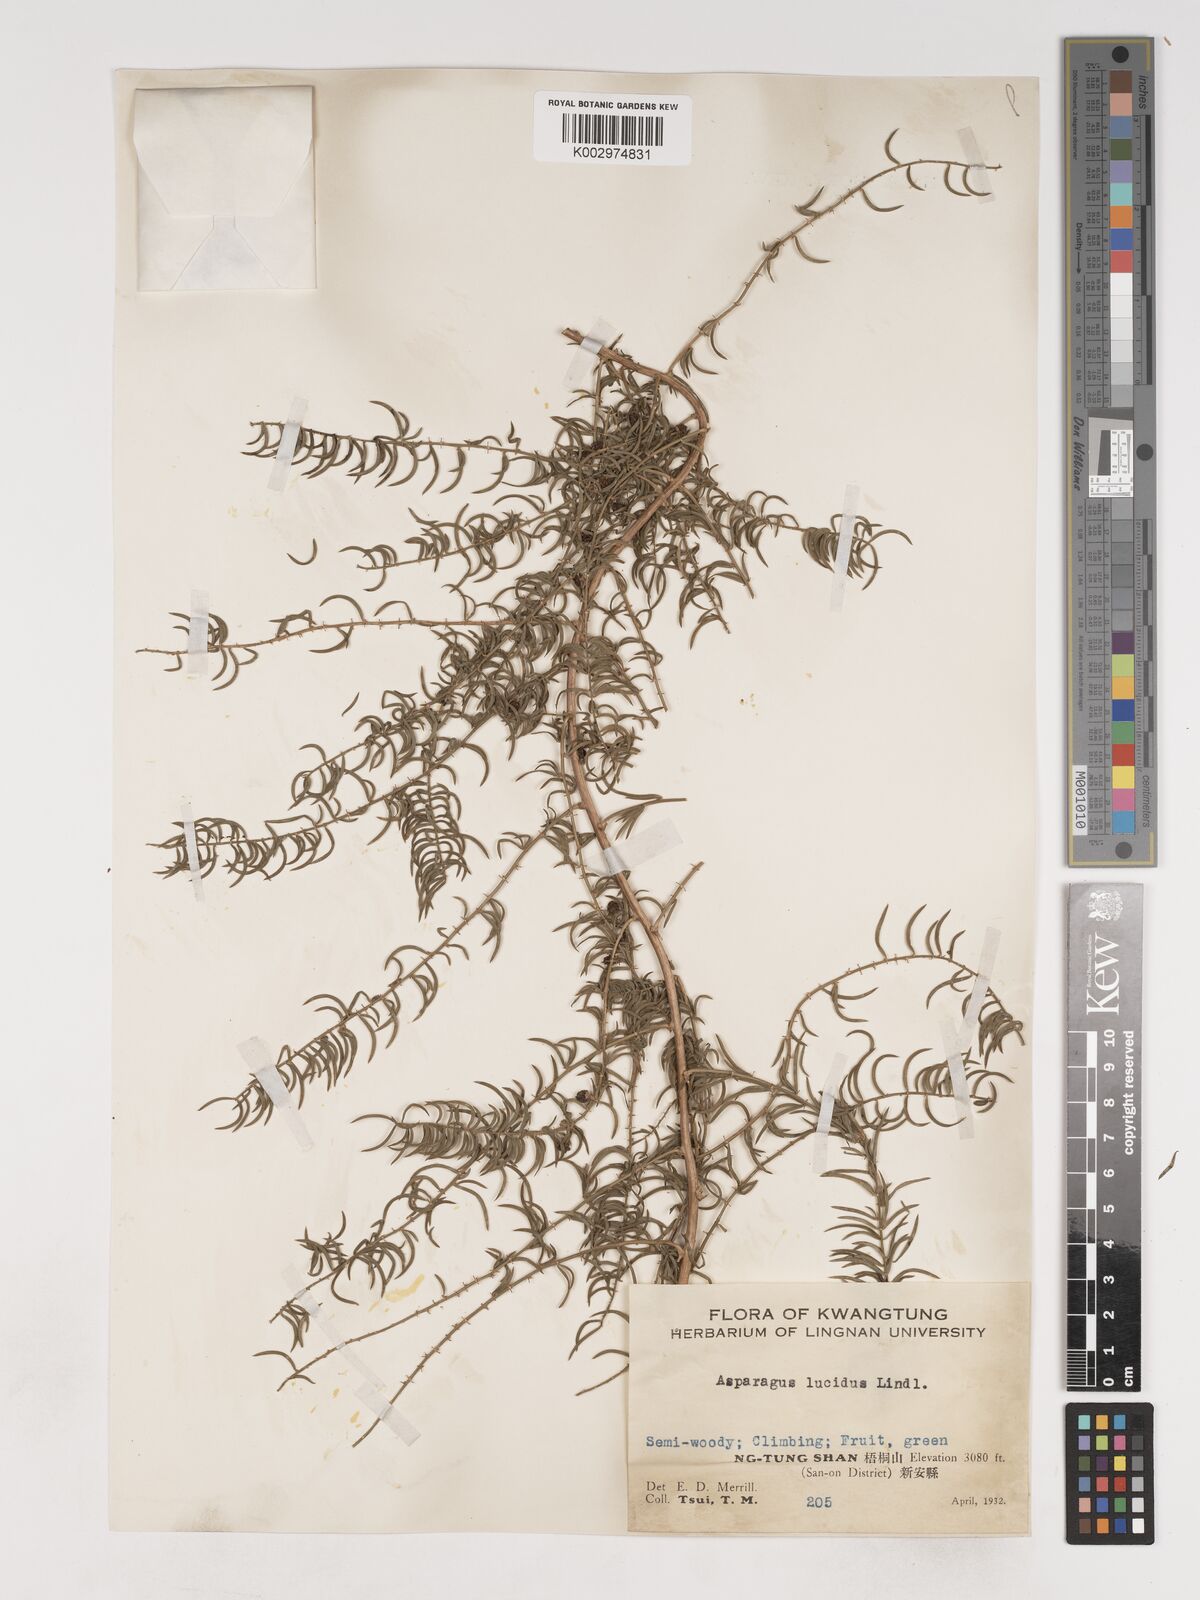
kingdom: Plantae
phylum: Tracheophyta
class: Liliopsida
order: Asparagales
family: Asparagaceae
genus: Asparagus
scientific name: Asparagus cochinchinensis
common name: Chinese asparagus
